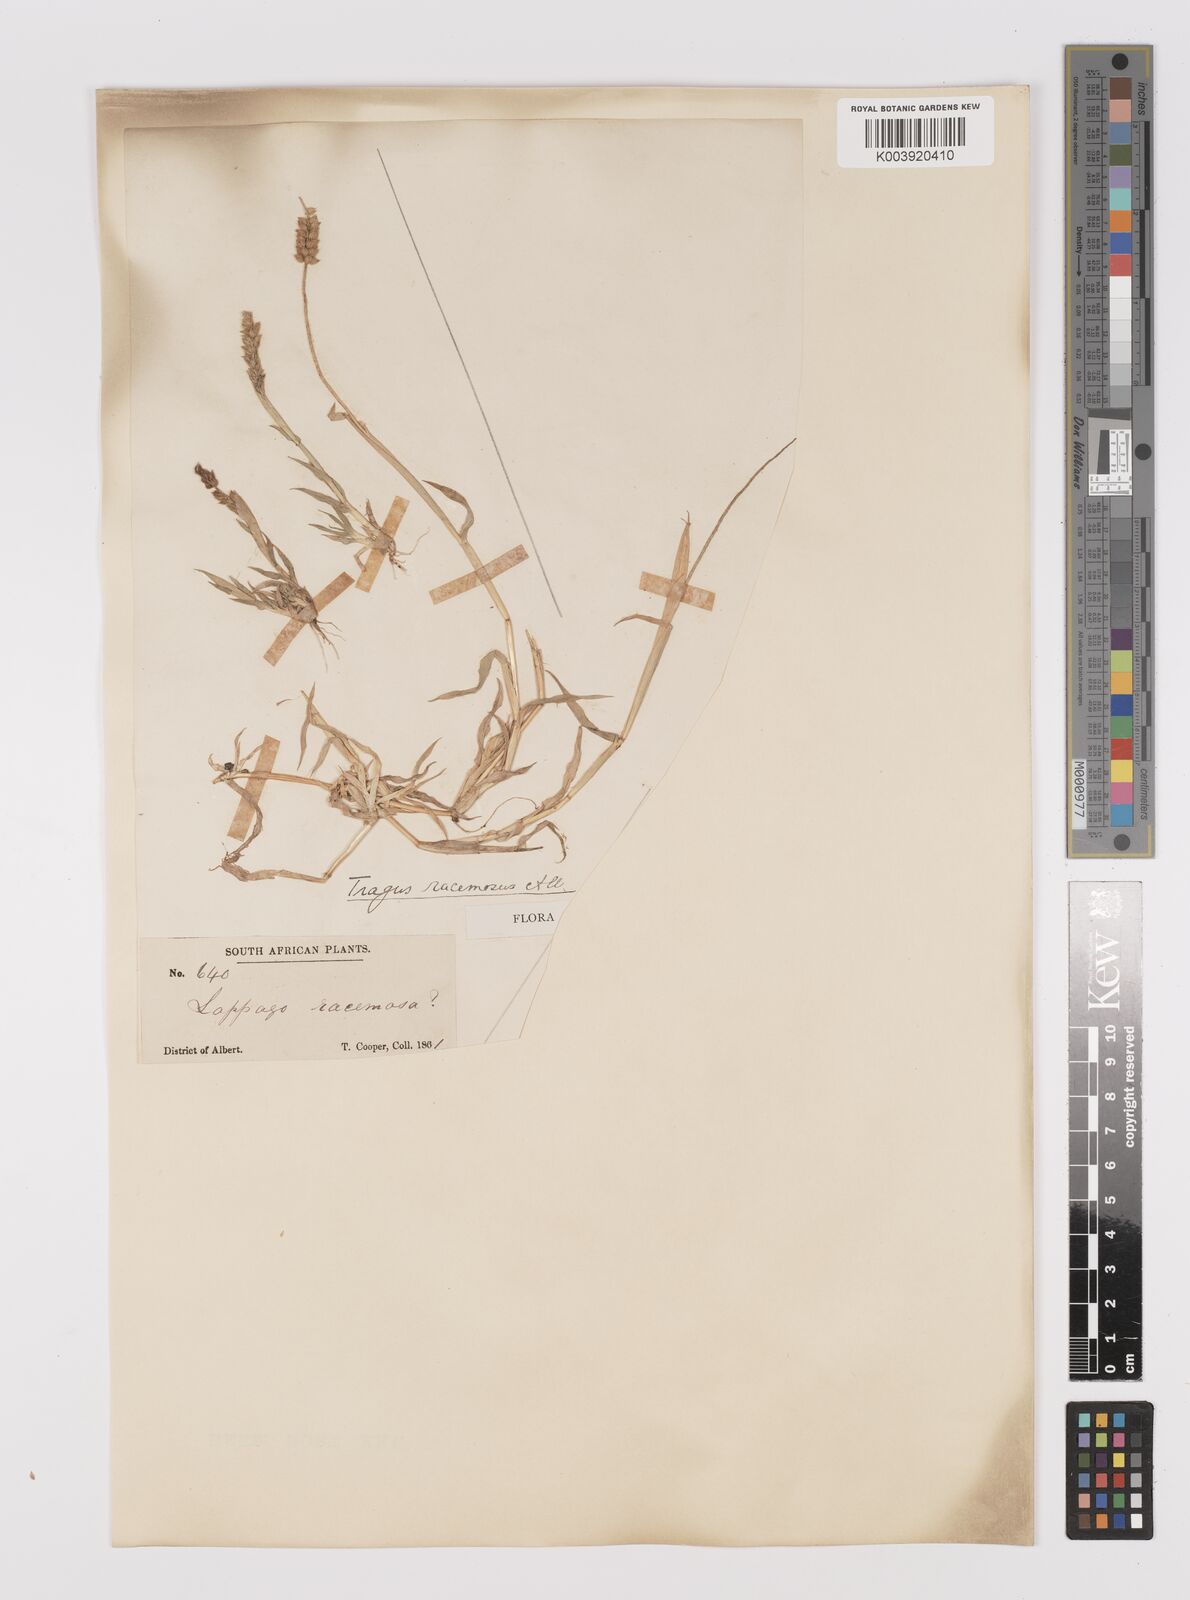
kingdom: Plantae
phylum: Tracheophyta
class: Liliopsida
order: Poales
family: Poaceae
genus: Tragus
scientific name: Tragus berteronianus
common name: African bur-grass
